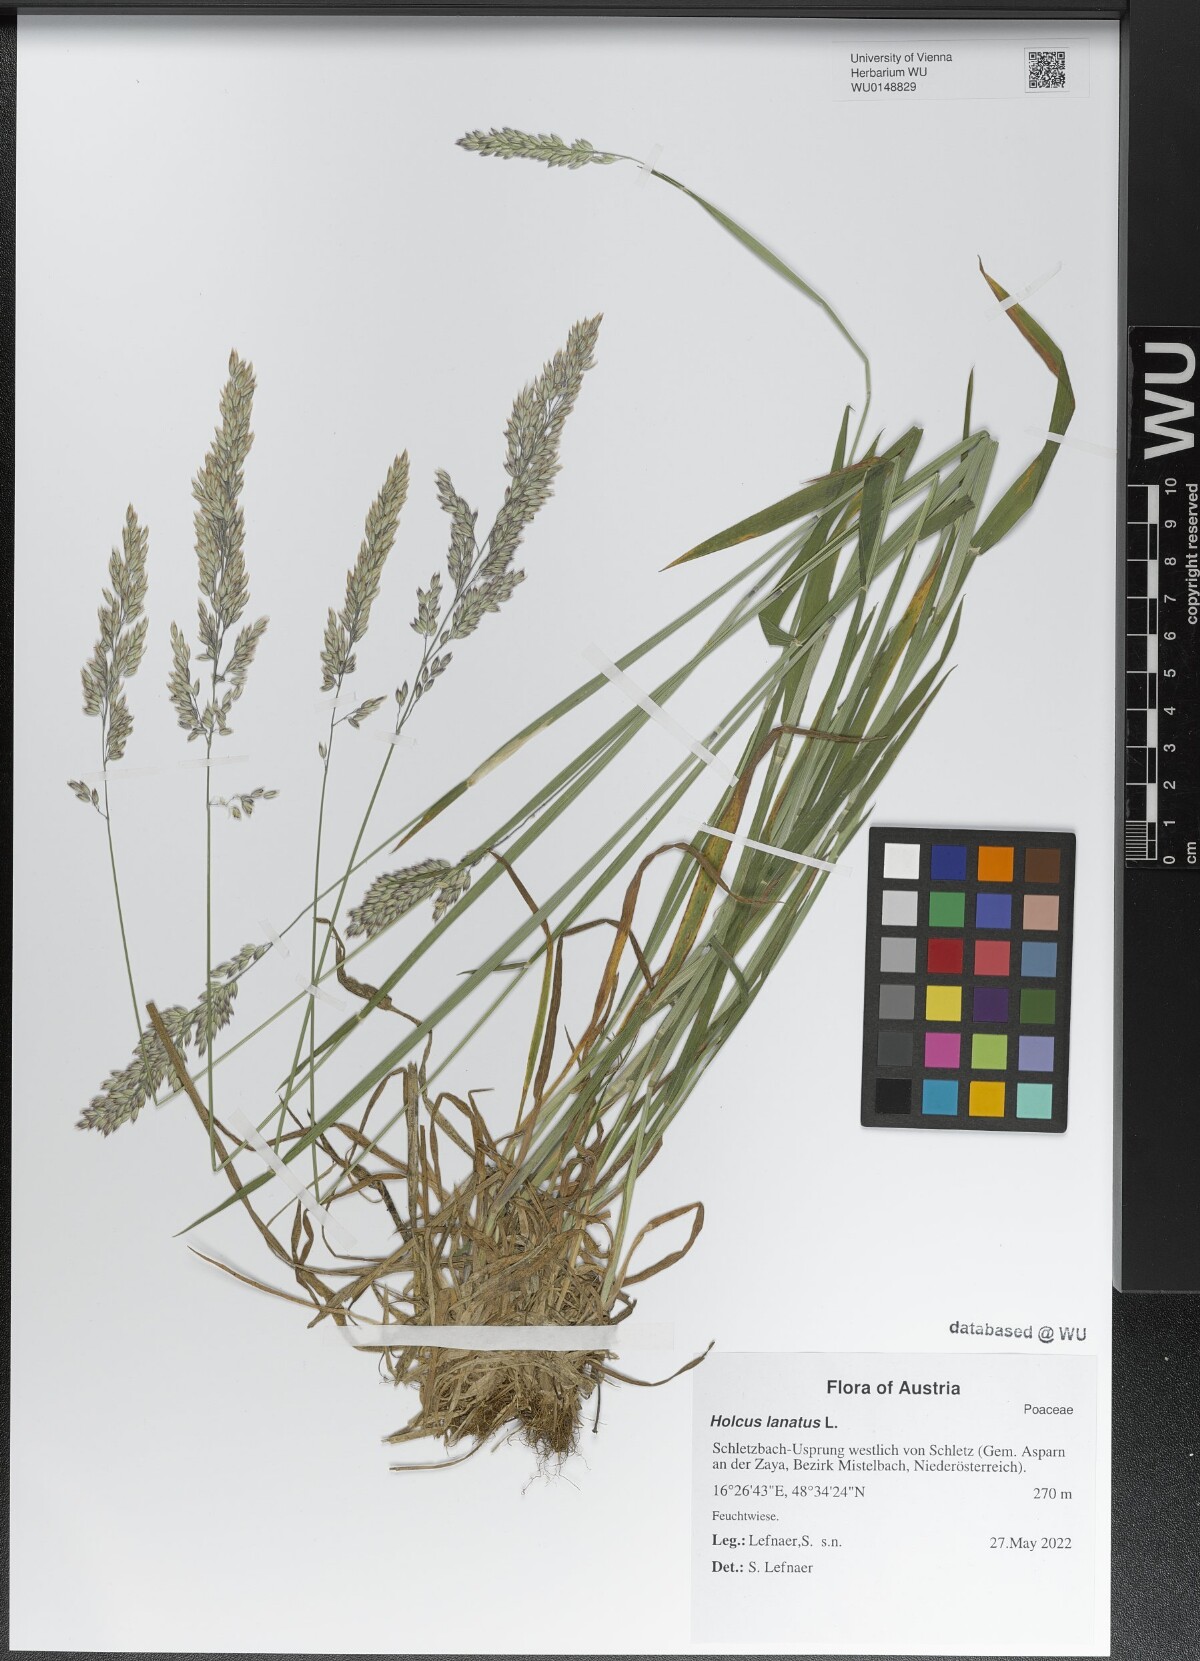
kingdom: Plantae
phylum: Tracheophyta
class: Liliopsida
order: Poales
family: Poaceae
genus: Holcus
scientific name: Holcus lanatus
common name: Yorkshire-fog
